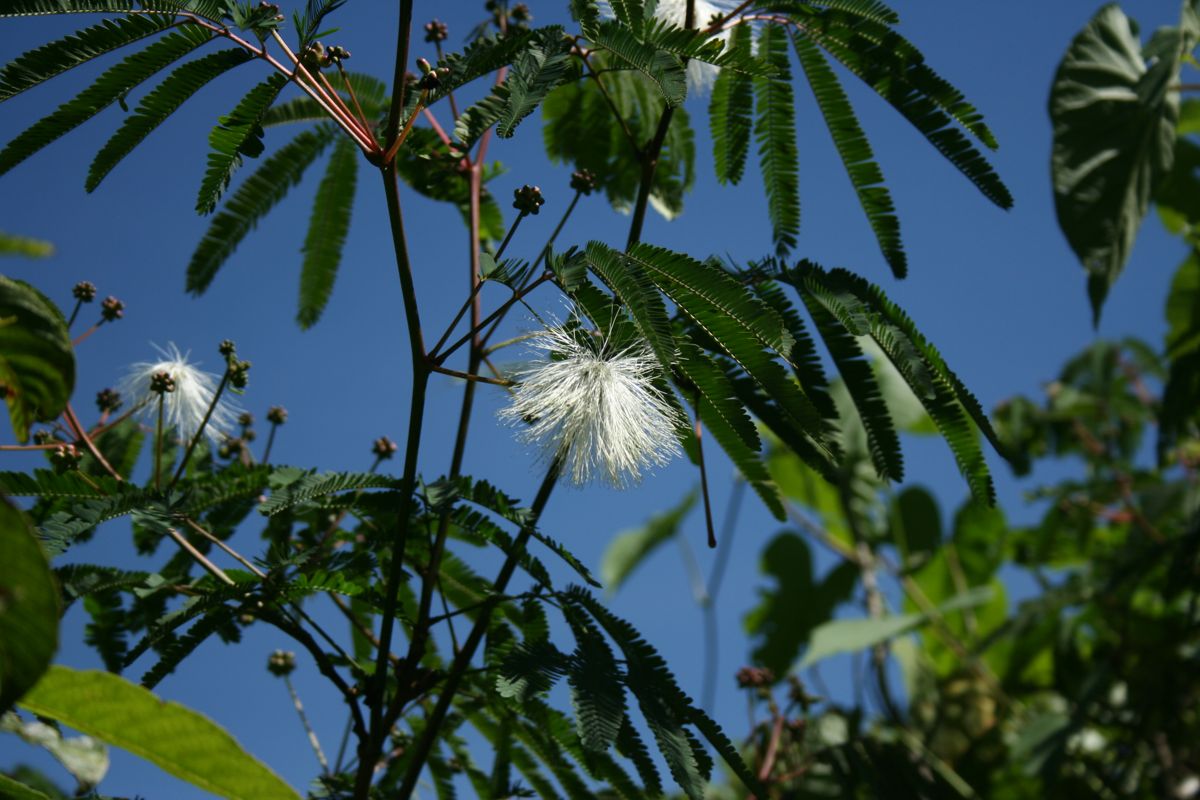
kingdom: Plantae
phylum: Tracheophyta
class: Magnoliopsida
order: Fabales
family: Fabaceae
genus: Zapoteca
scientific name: Zapoteca portoricensis
